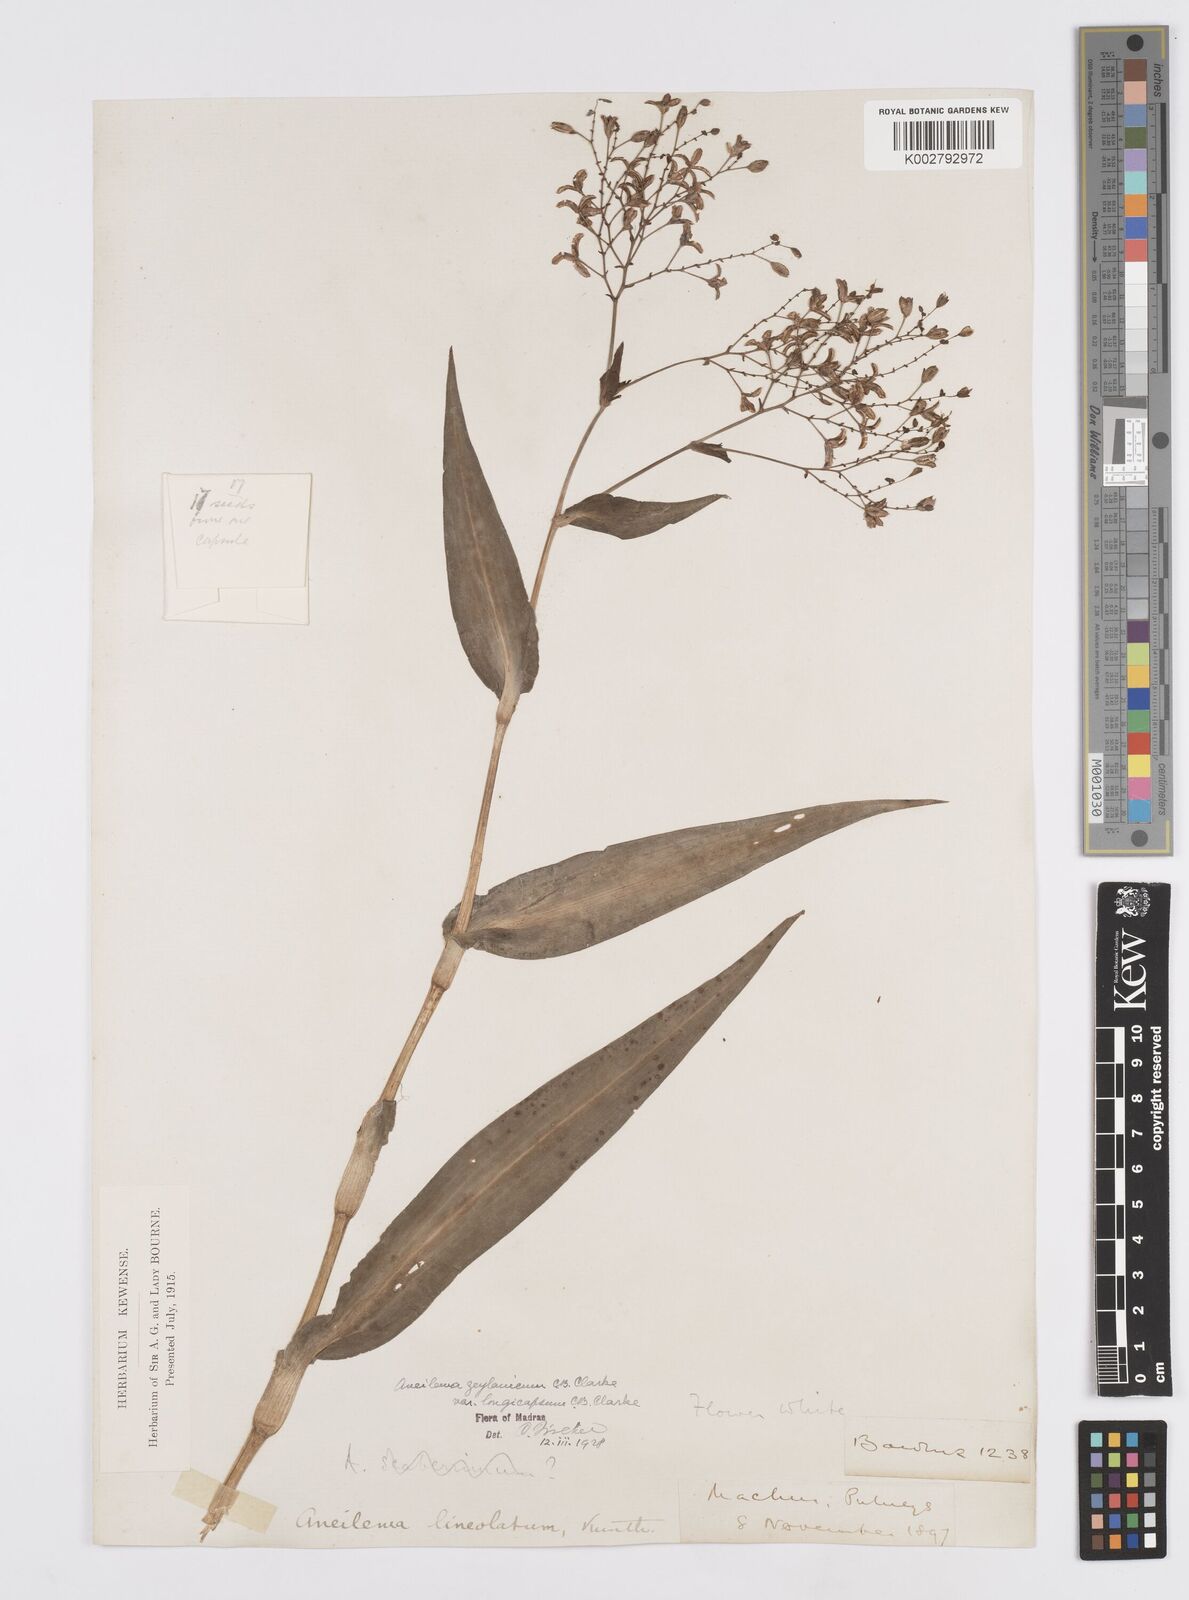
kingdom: Plantae
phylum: Tracheophyta
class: Liliopsida
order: Commelinales
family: Commelinaceae
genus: Murdannia
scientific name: Murdannia zeylanica
